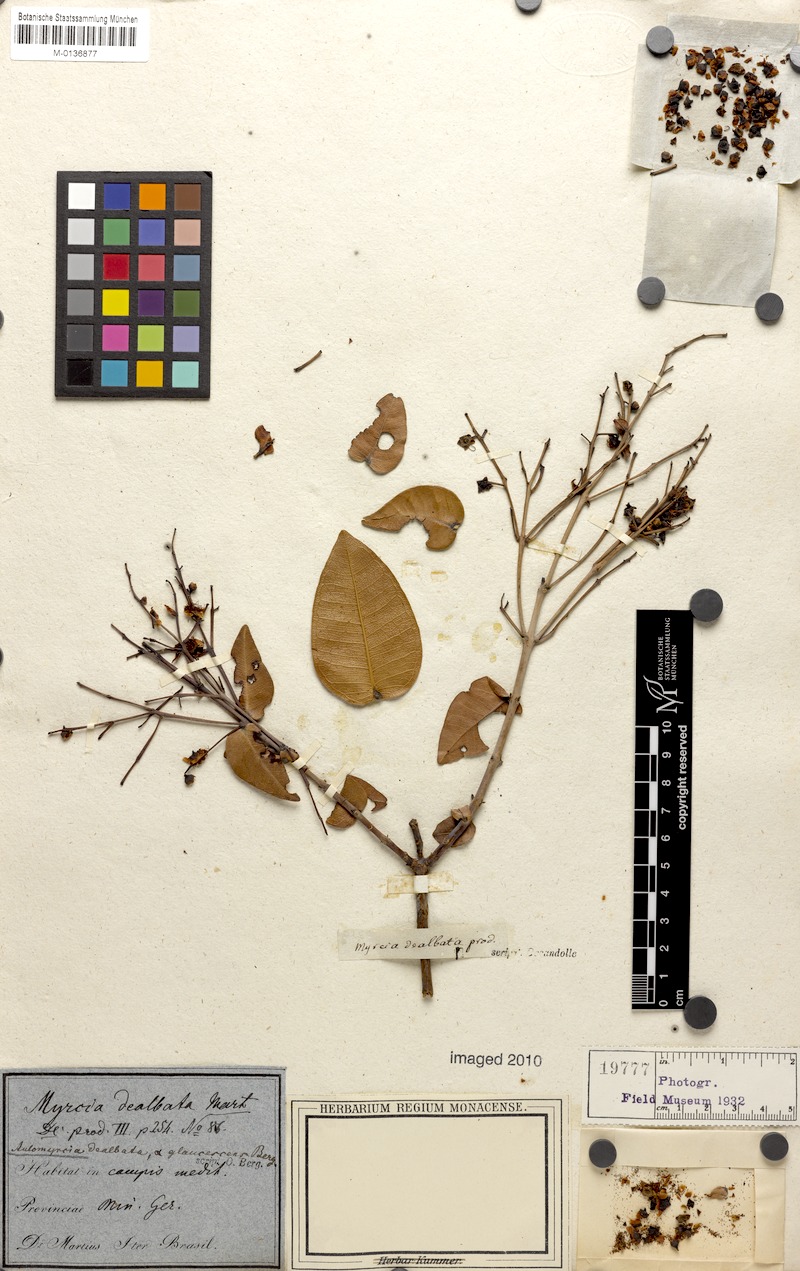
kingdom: Plantae
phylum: Tracheophyta
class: Magnoliopsida
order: Myrtales
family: Myrtaceae
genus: Myrcia
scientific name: Myrcia dealbata
